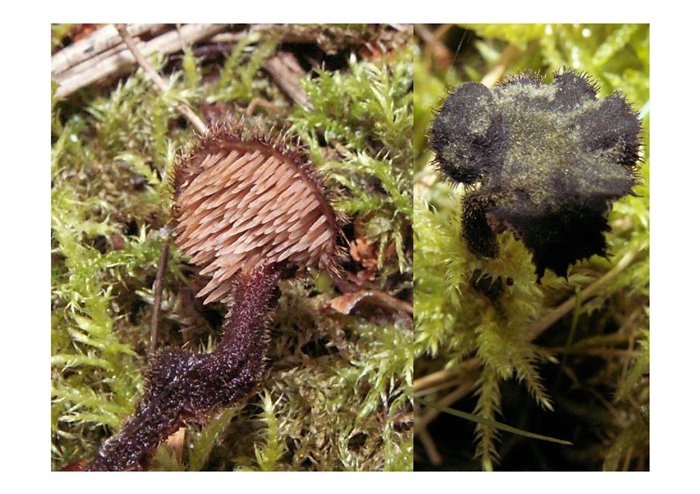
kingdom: Fungi
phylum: Basidiomycota
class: Agaricomycetes
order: Russulales
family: Auriscalpiaceae
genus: Auriscalpium
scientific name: Auriscalpium vulgare
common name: koglepigsvamp
